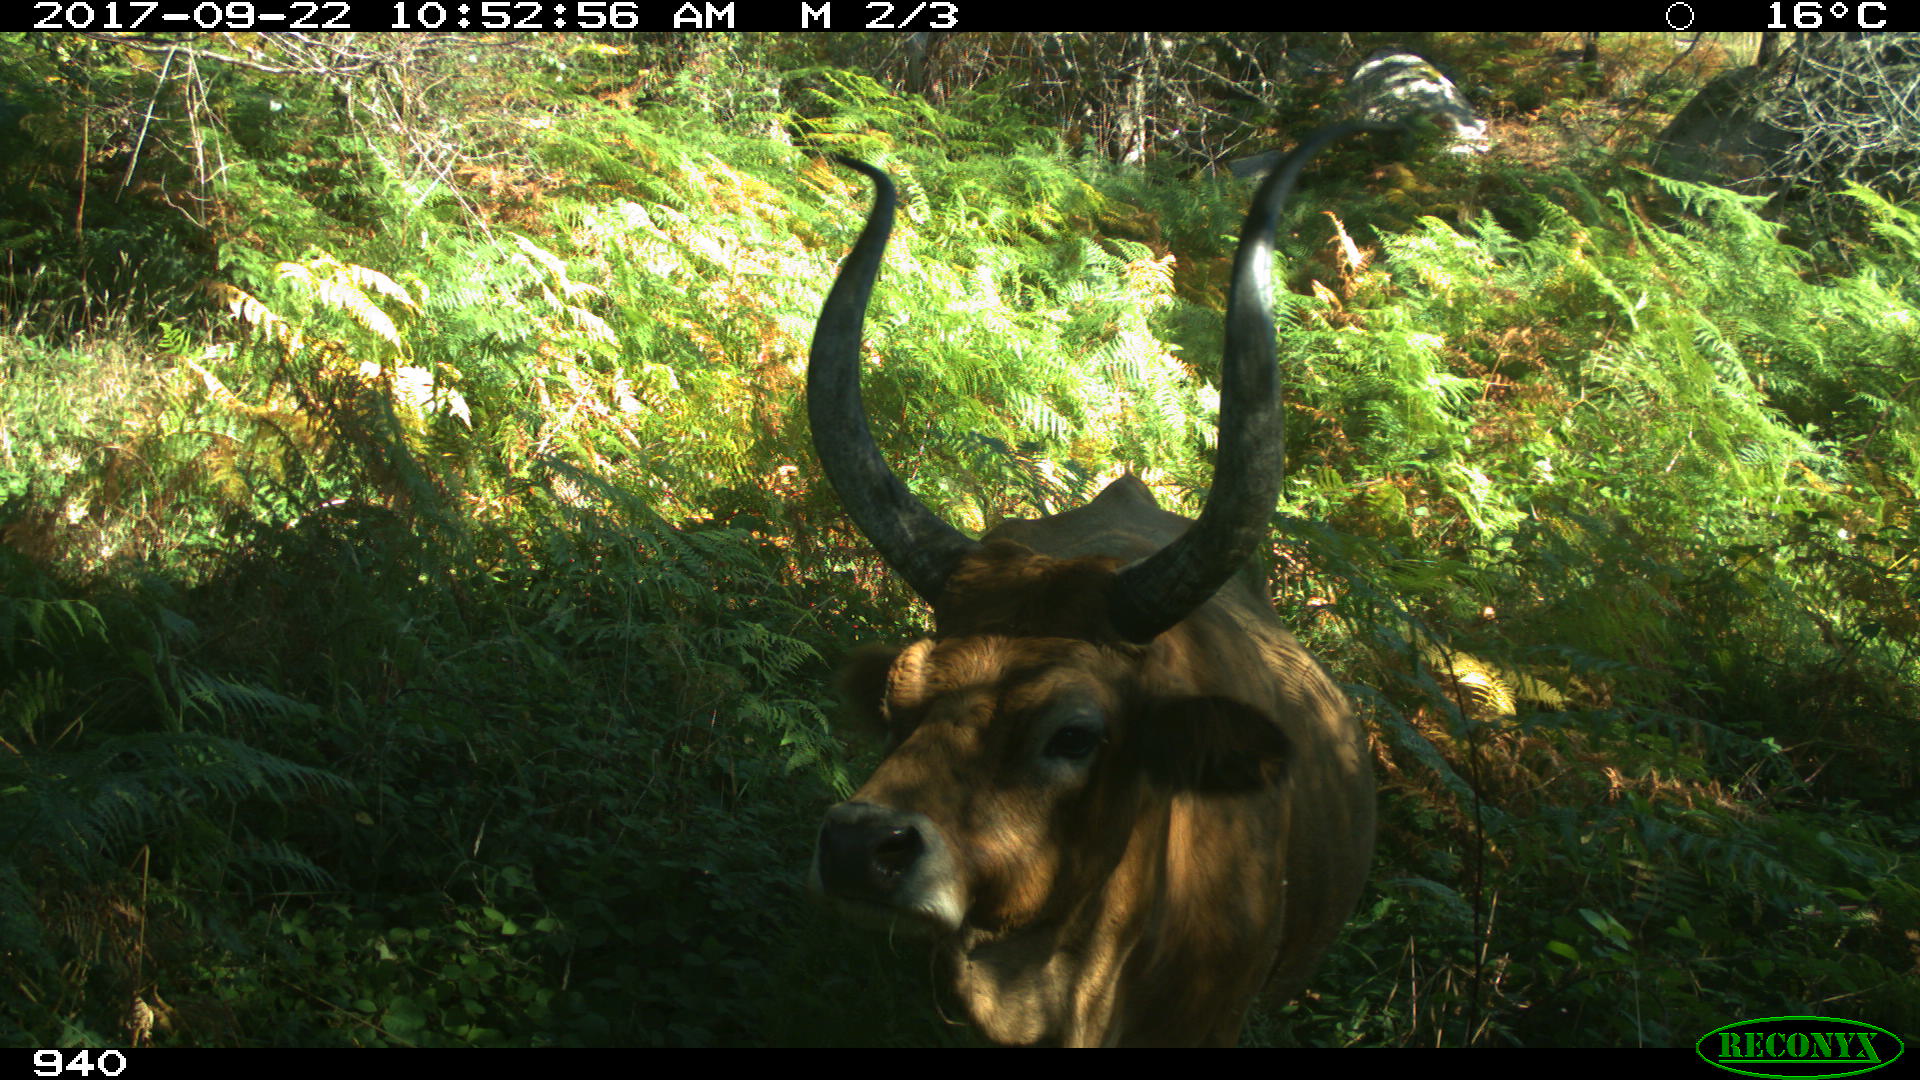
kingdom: Animalia
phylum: Chordata
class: Mammalia
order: Artiodactyla
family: Bovidae
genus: Bos
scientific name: Bos taurus
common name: Domesticated cattle
